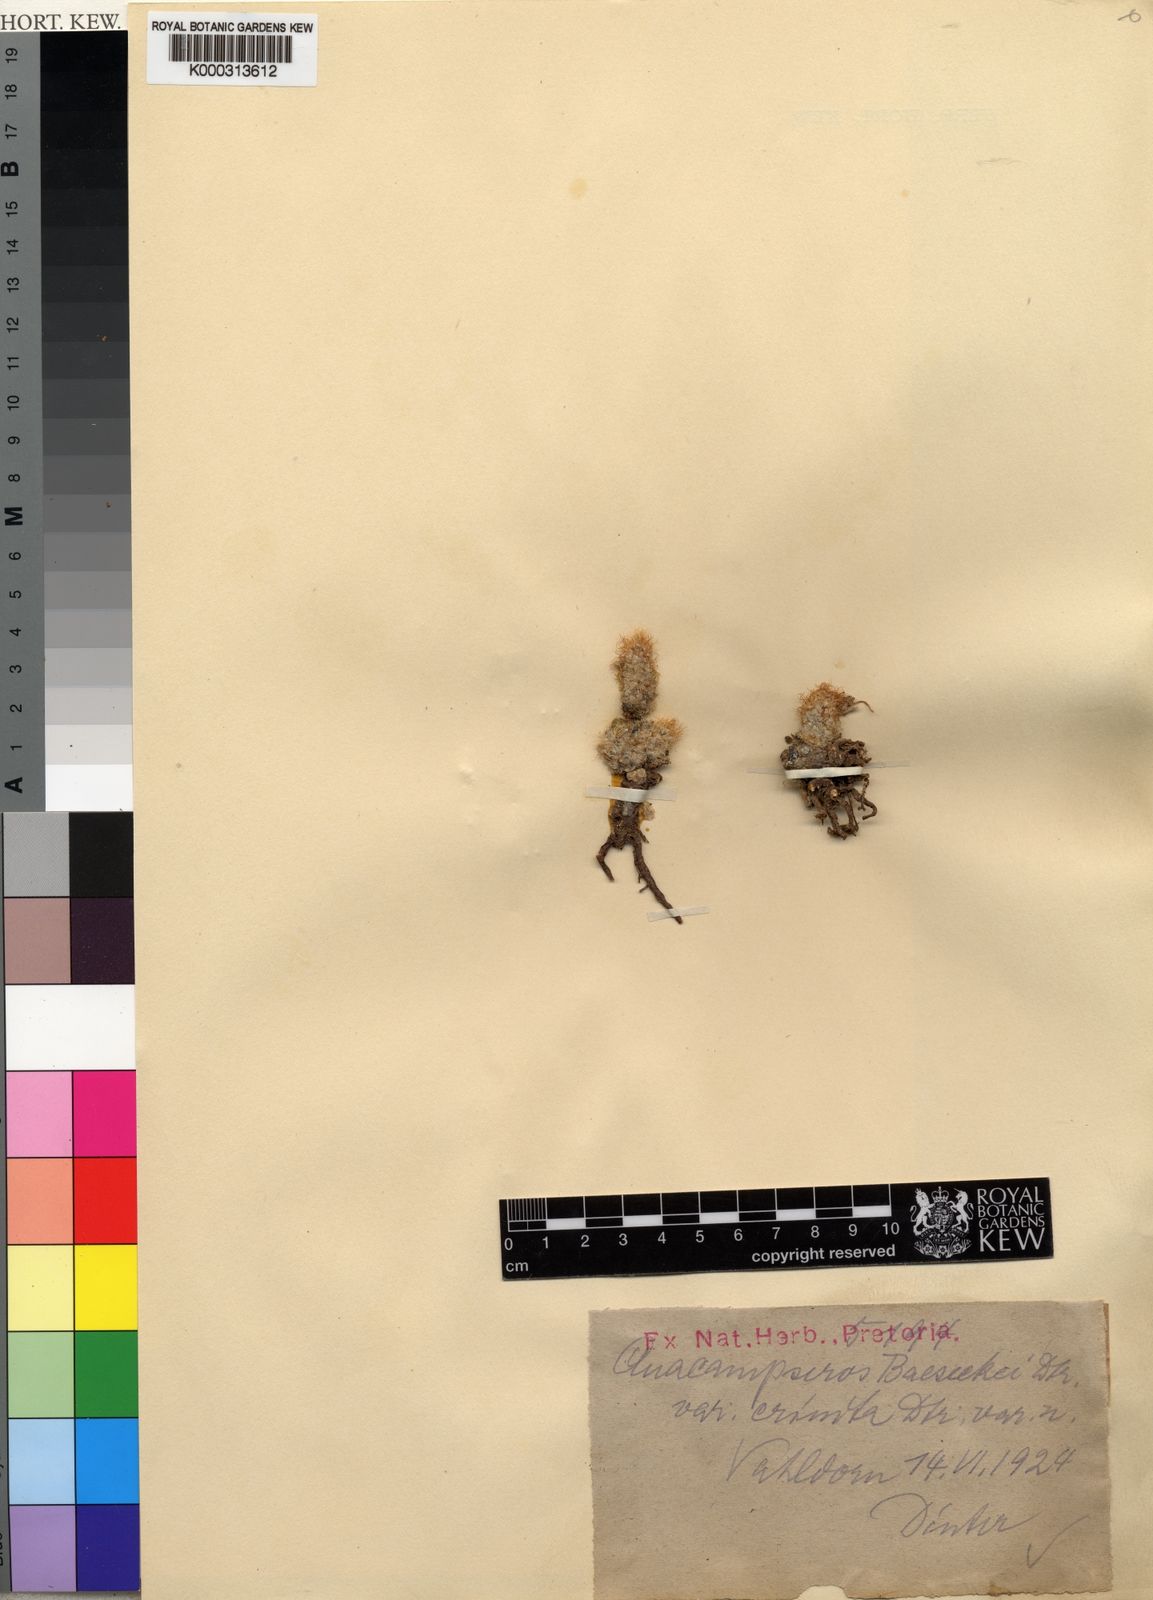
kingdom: Plantae
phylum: Tracheophyta
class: Magnoliopsida
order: Caryophyllales
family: Anacampserotaceae
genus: Anacampseros
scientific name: Anacampseros
